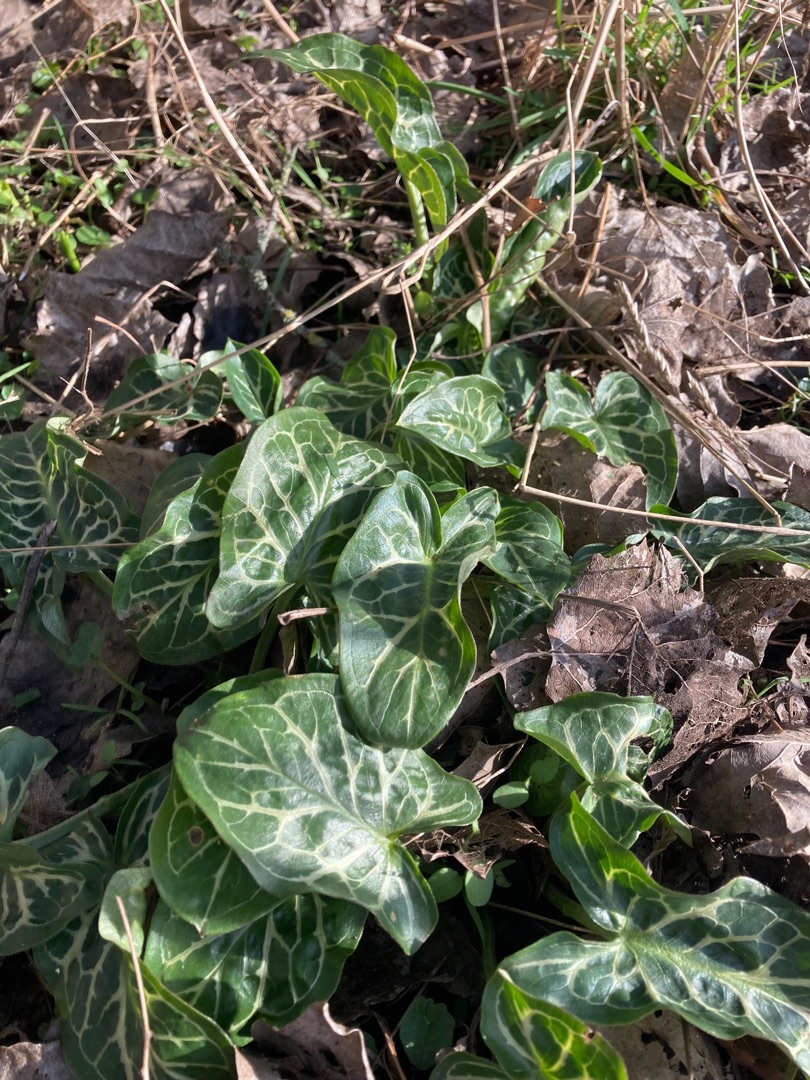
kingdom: Plantae
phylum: Tracheophyta
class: Liliopsida
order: Alismatales
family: Araceae
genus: Arum
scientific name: Arum italicum
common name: Italiensk arum
